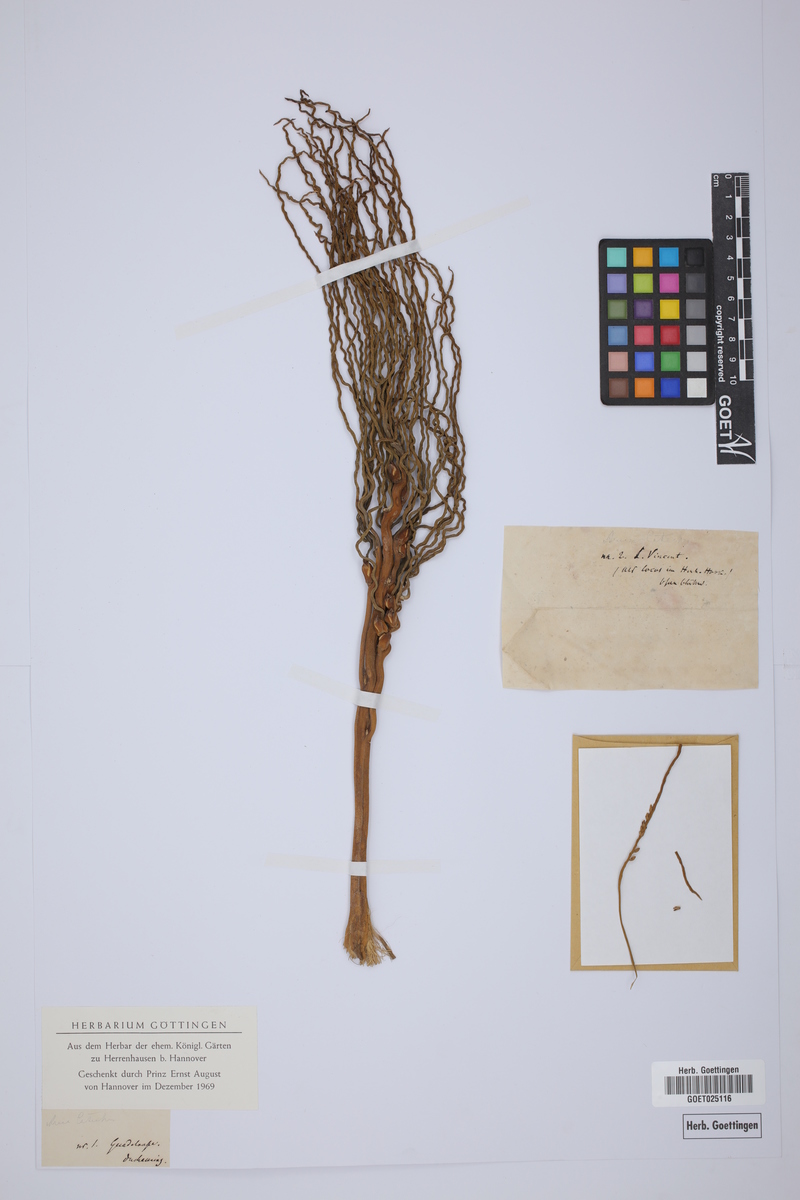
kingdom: Plantae
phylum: Tracheophyta
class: Liliopsida
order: Arecales
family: Arecaceae
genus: Areca
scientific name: Areca catechu
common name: Indian-nut
